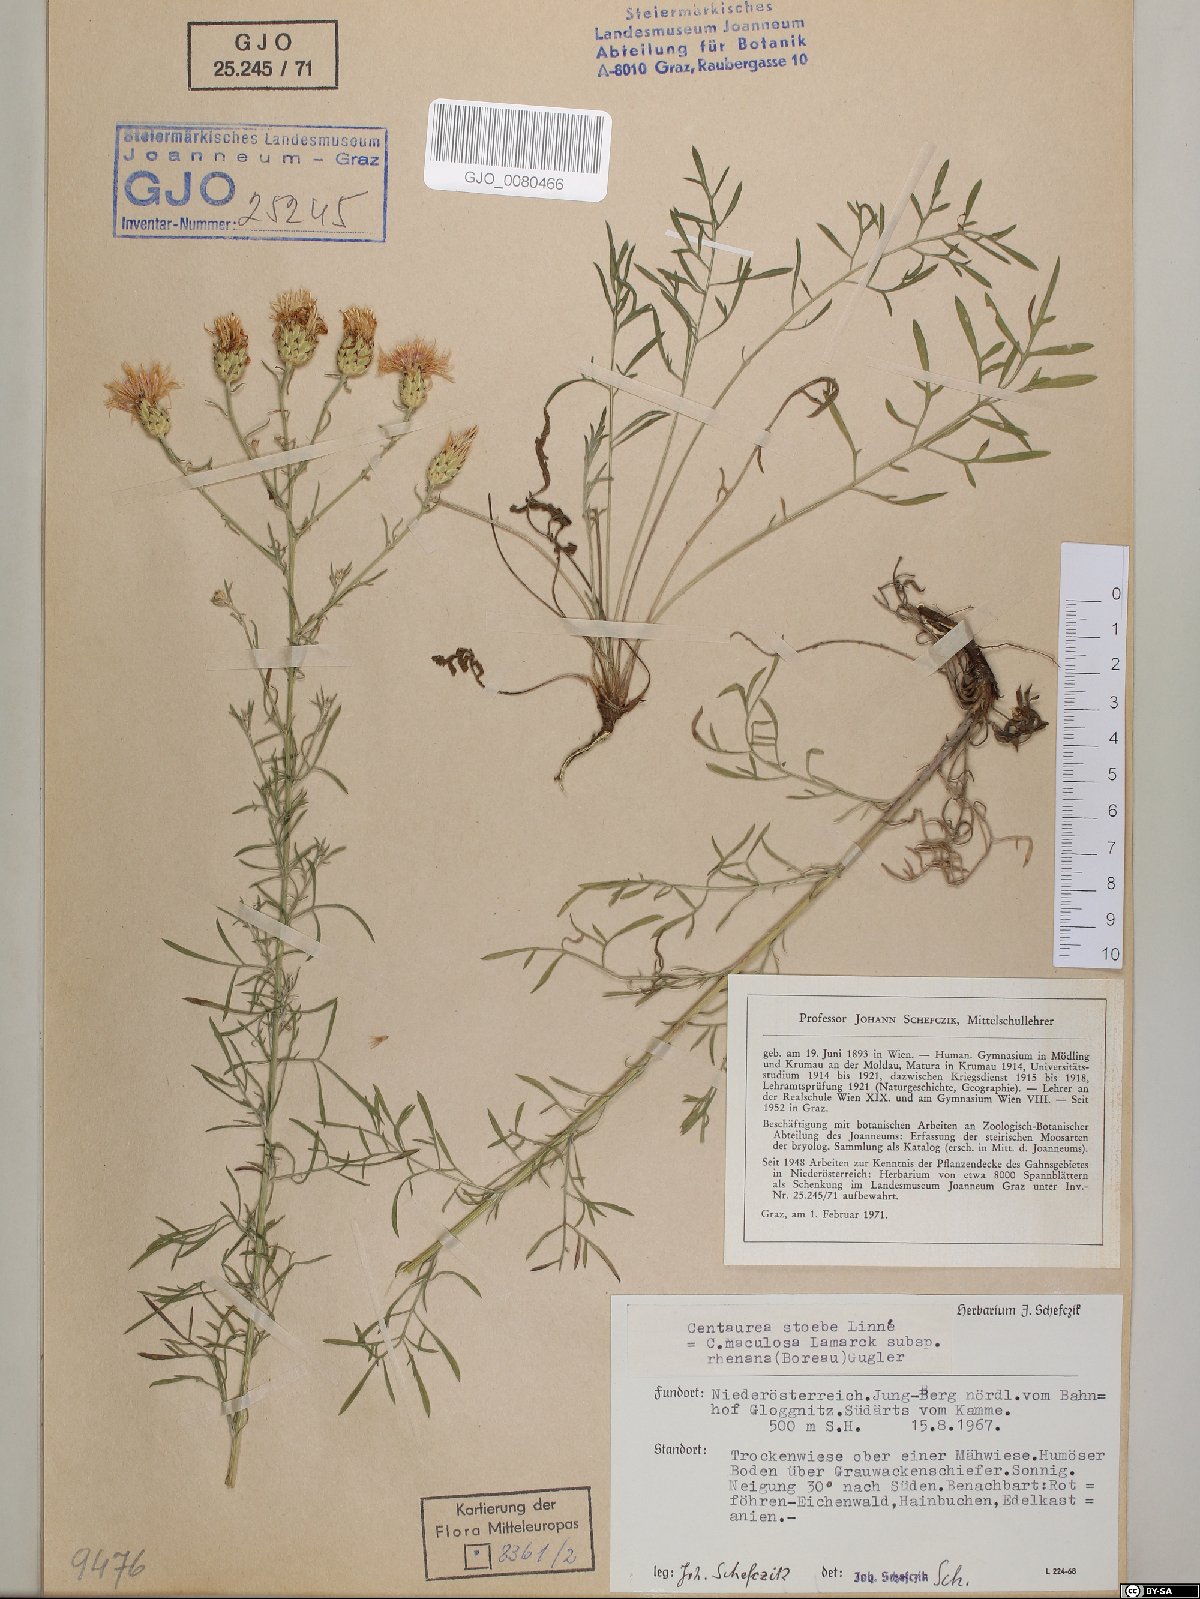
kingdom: Plantae
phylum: Tracheophyta
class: Magnoliopsida
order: Asterales
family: Asteraceae
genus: Centaurea
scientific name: Centaurea stoebe
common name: Spotted knapweed
